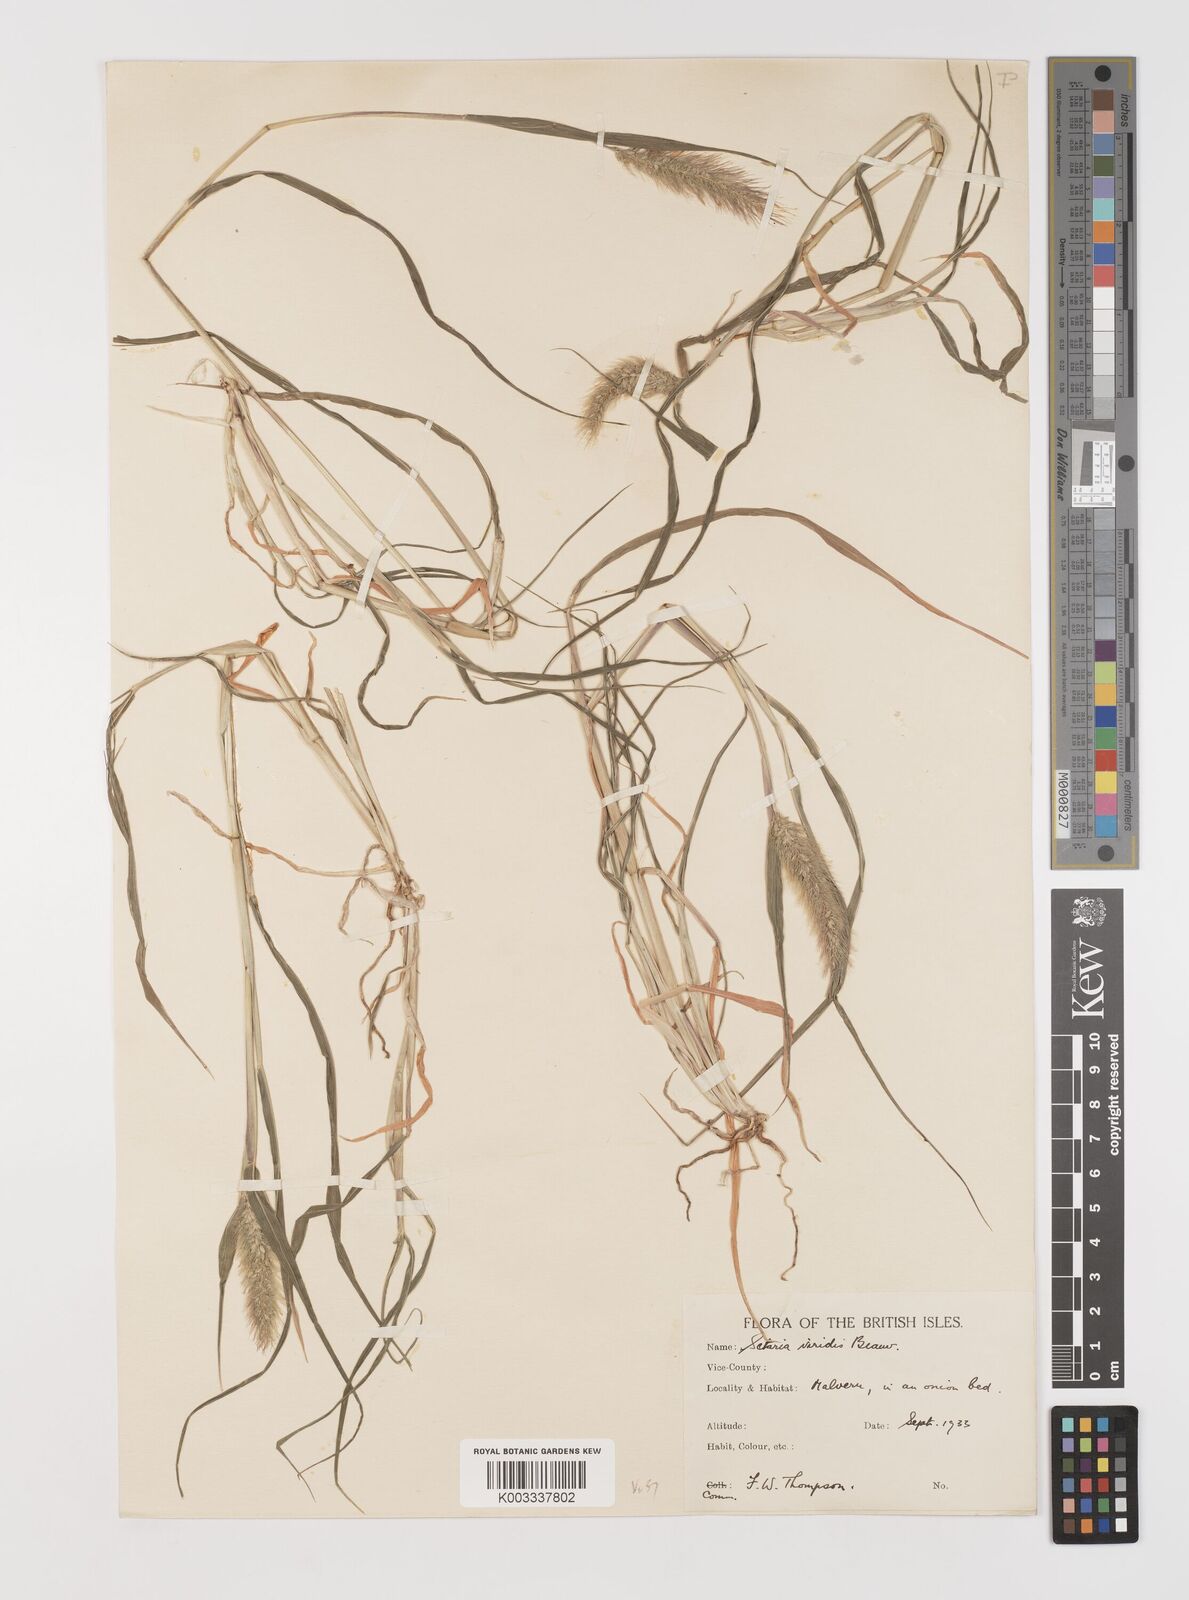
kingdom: Plantae
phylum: Tracheophyta
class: Liliopsida
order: Poales
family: Poaceae
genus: Setaria
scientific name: Setaria viridis
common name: Green bristlegrass
